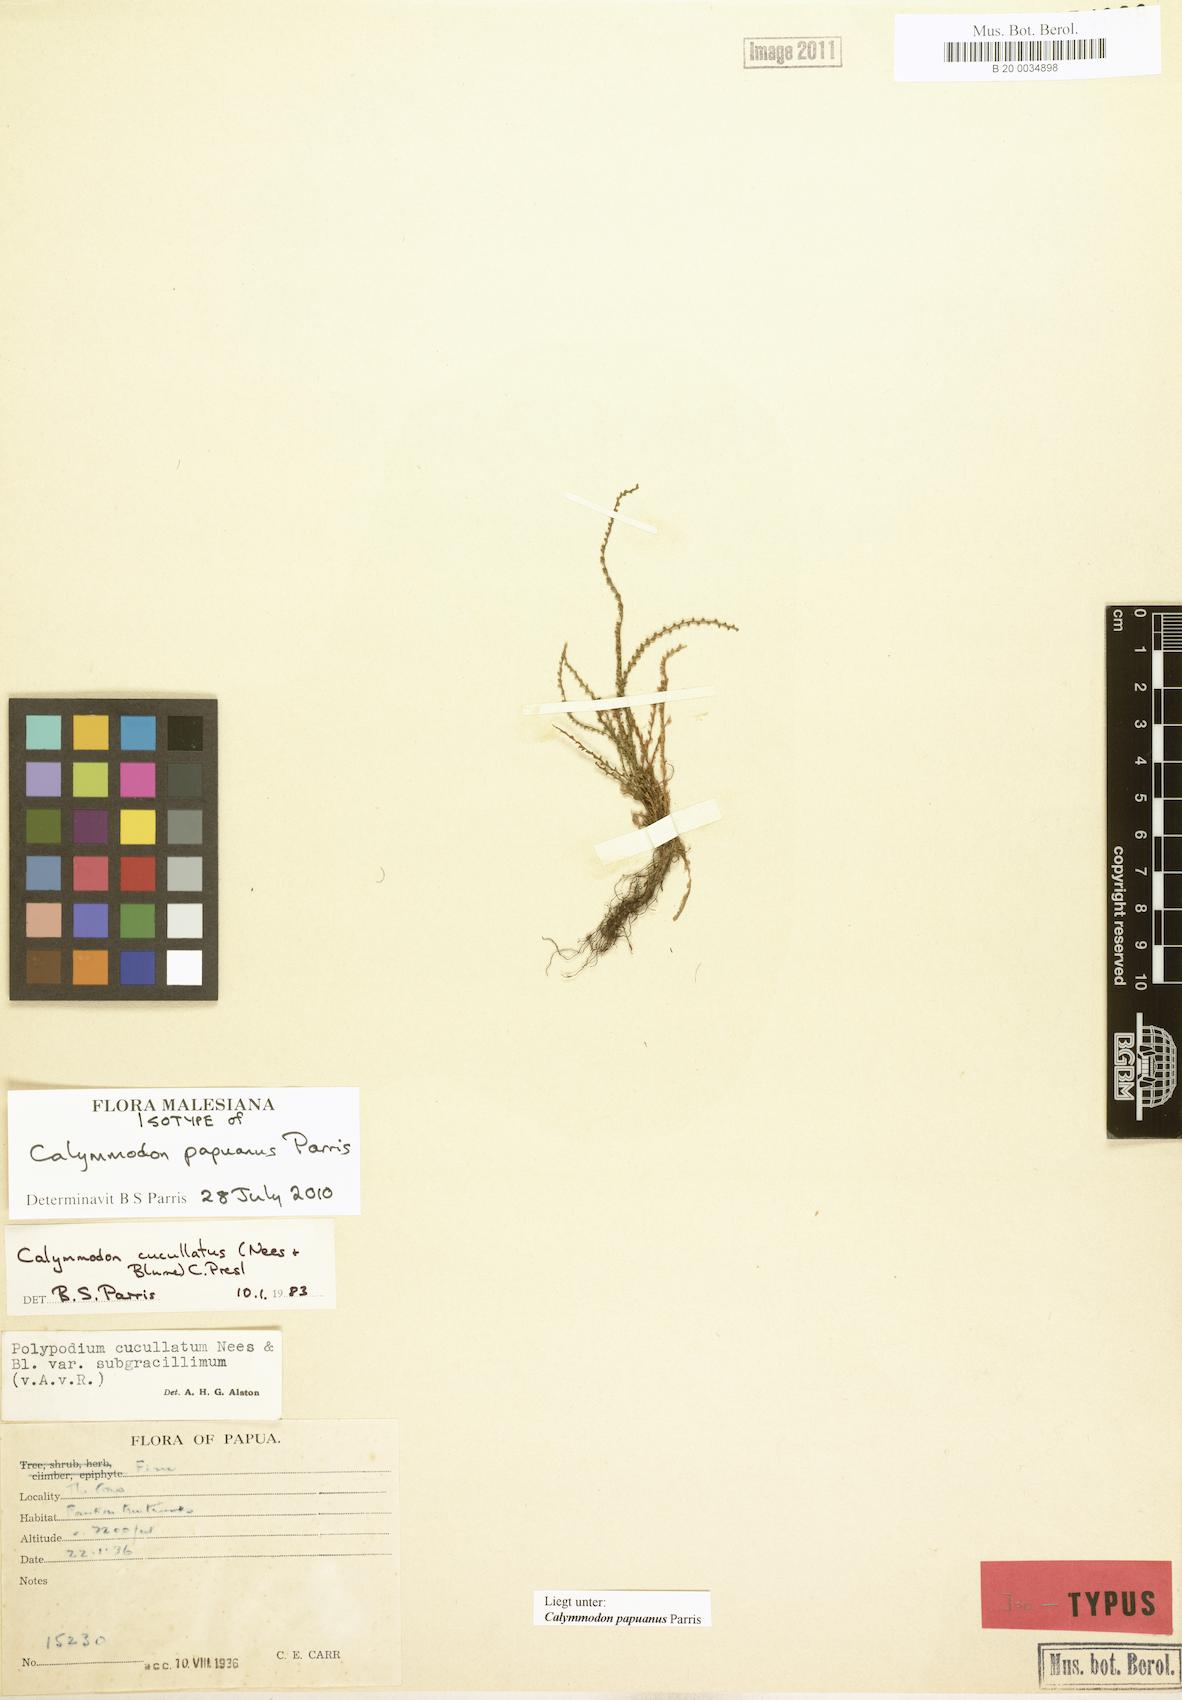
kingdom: Plantae
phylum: Tracheophyta
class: Polypodiopsida
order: Polypodiales
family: Polypodiaceae
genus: Calymmodon
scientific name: Calymmodon papuanus
